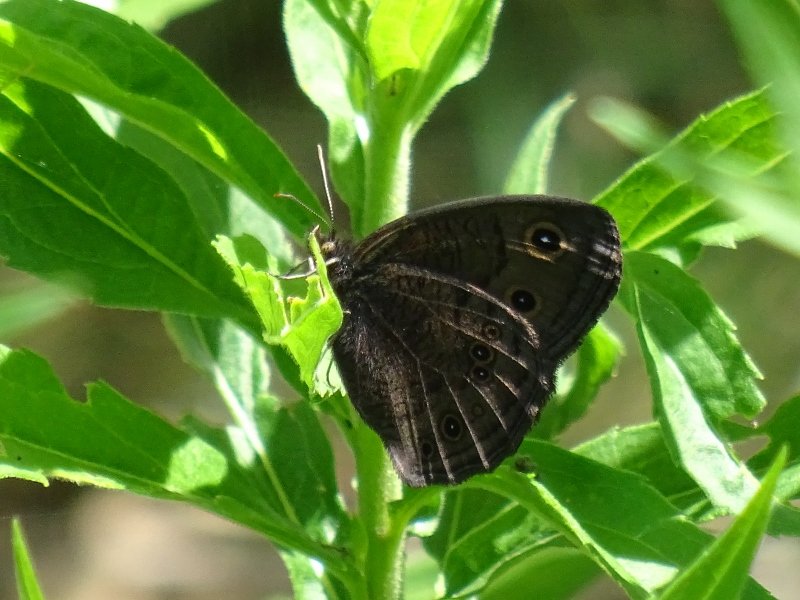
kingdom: Animalia
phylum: Arthropoda
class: Insecta
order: Lepidoptera
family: Nymphalidae
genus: Cercyonis
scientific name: Cercyonis pegala
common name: Common Wood-Nymph
